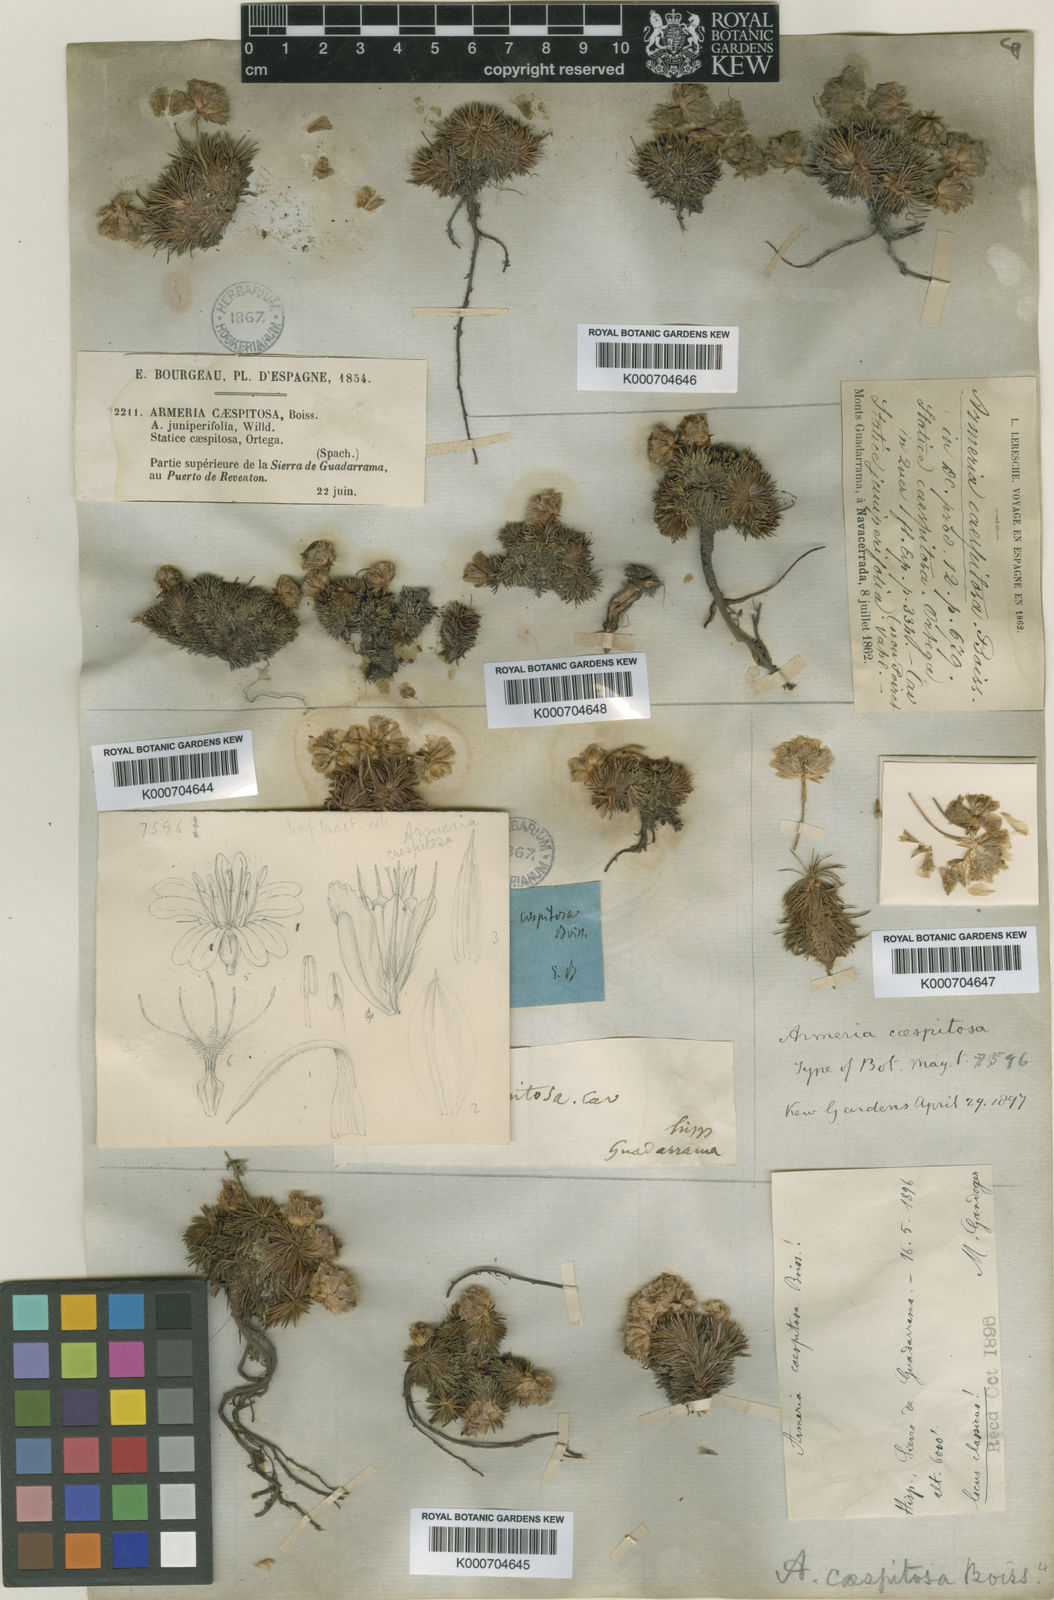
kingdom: Plantae
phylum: Tracheophyta
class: Magnoliopsida
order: Caryophyllales
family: Plumbaginaceae
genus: Armeria
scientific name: Armeria caespitosa
